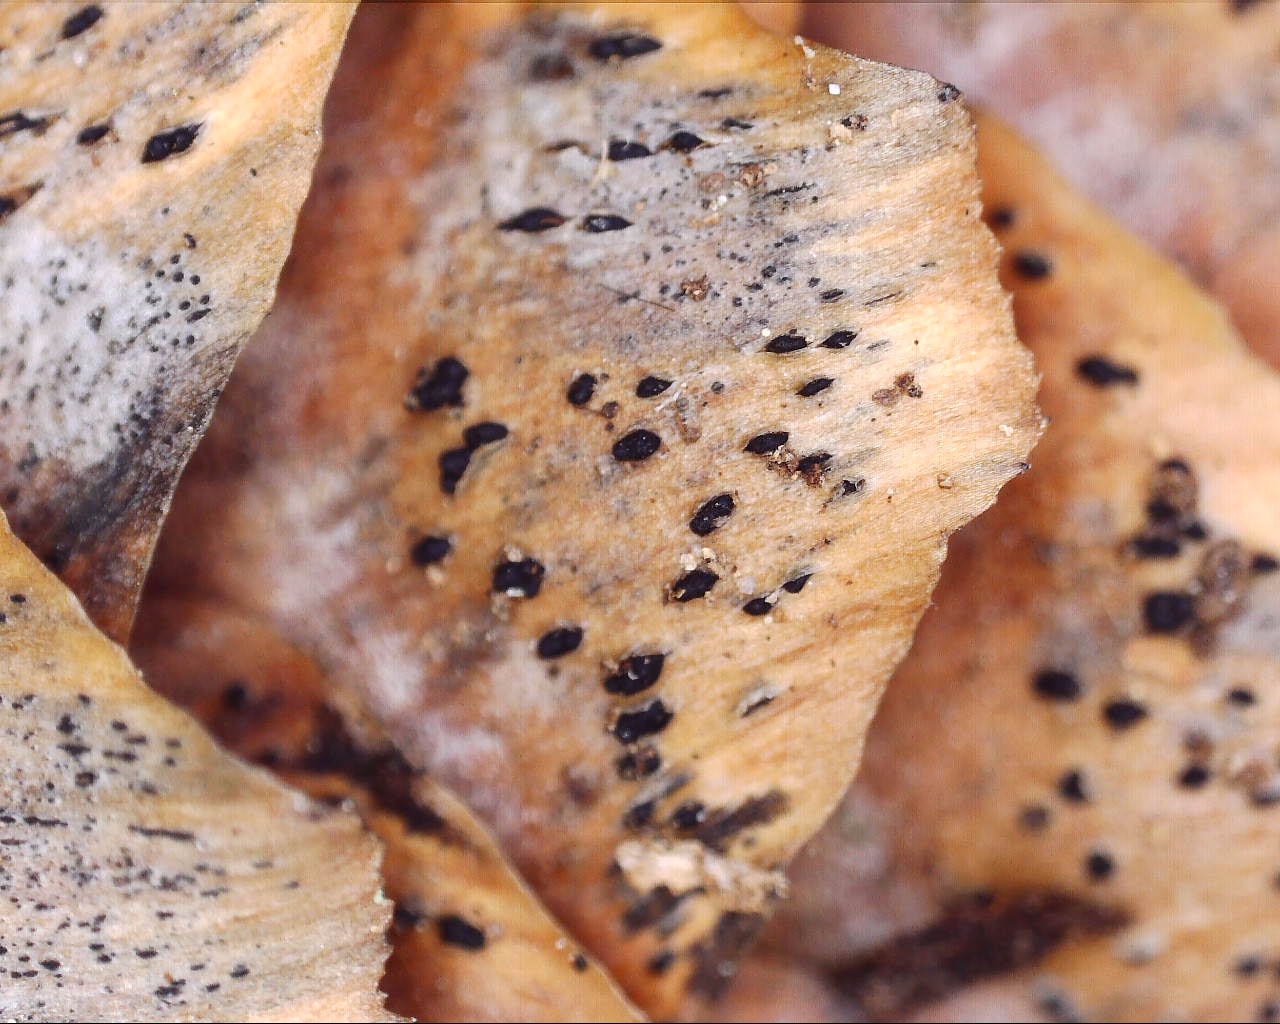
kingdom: Fungi
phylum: Ascomycota
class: Sordariomycetes
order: Diaporthales
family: Gnomoniaceae
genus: Sirococcus
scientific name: Sirococcus conigenus
